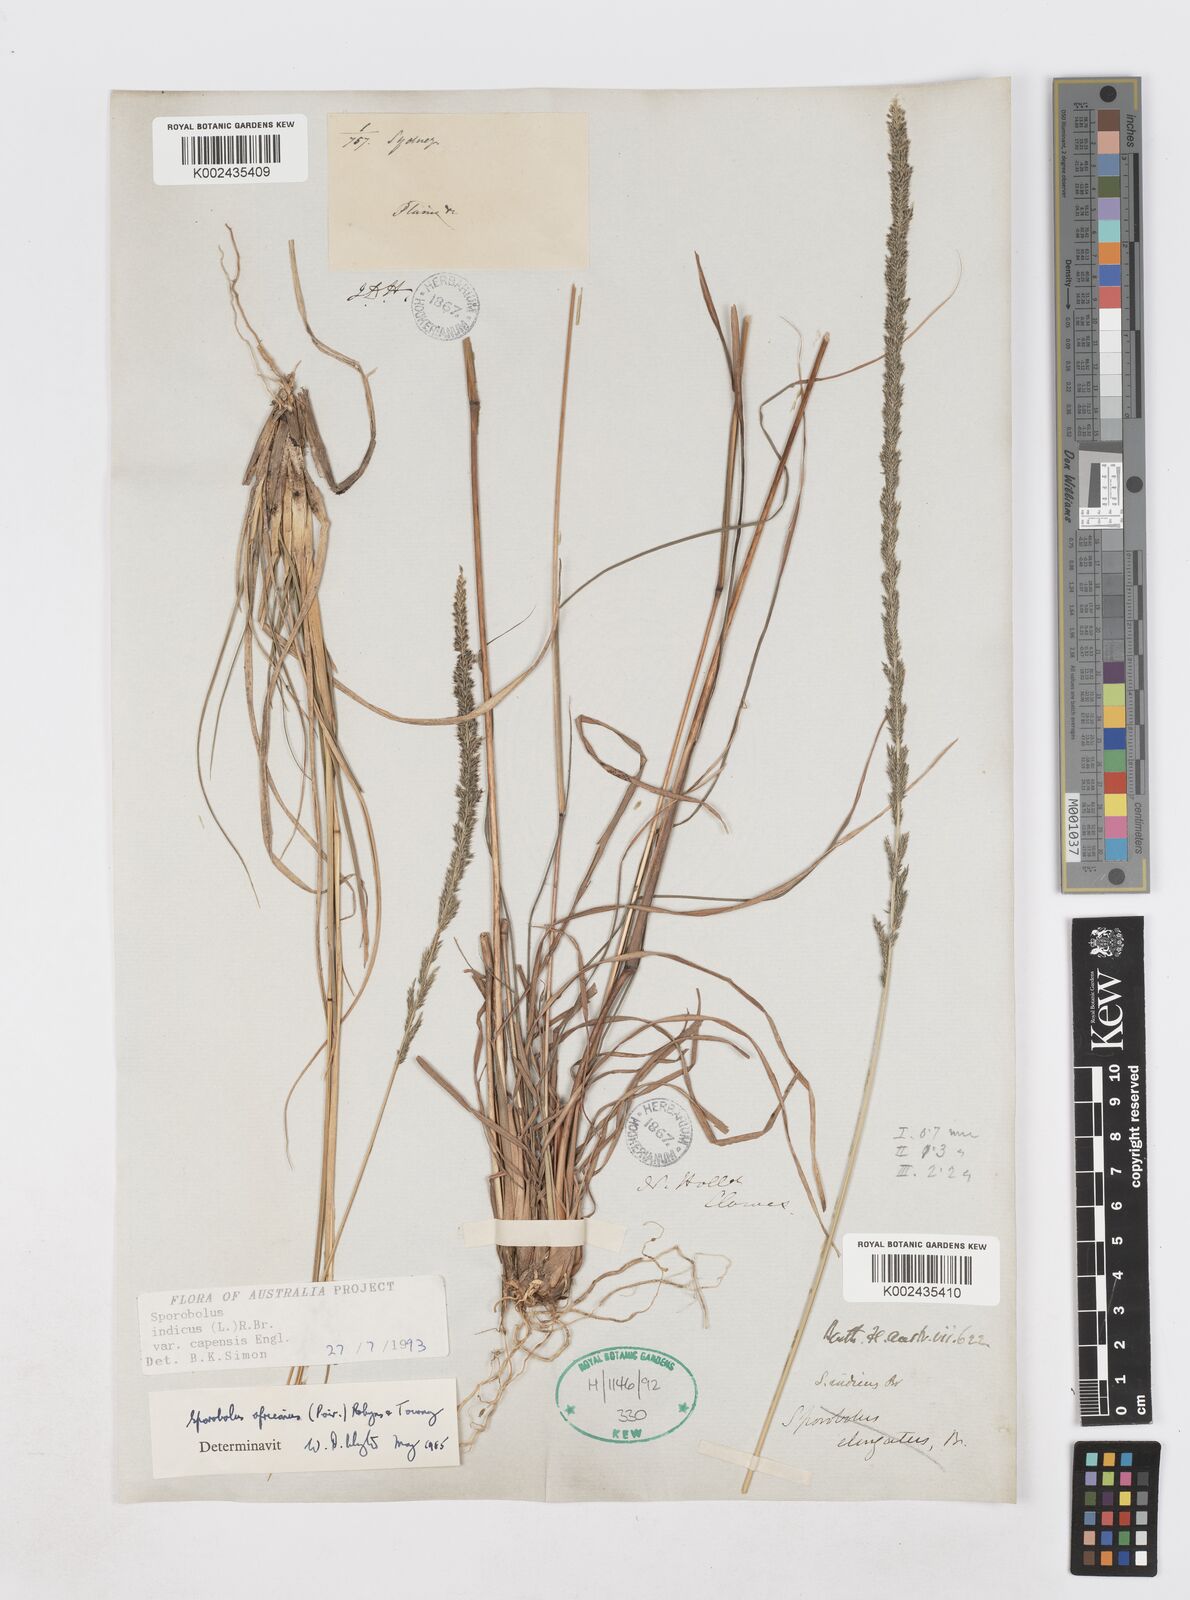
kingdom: Plantae
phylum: Tracheophyta
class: Liliopsida
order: Poales
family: Poaceae
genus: Sporobolus
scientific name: Sporobolus africanus
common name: African dropseed
